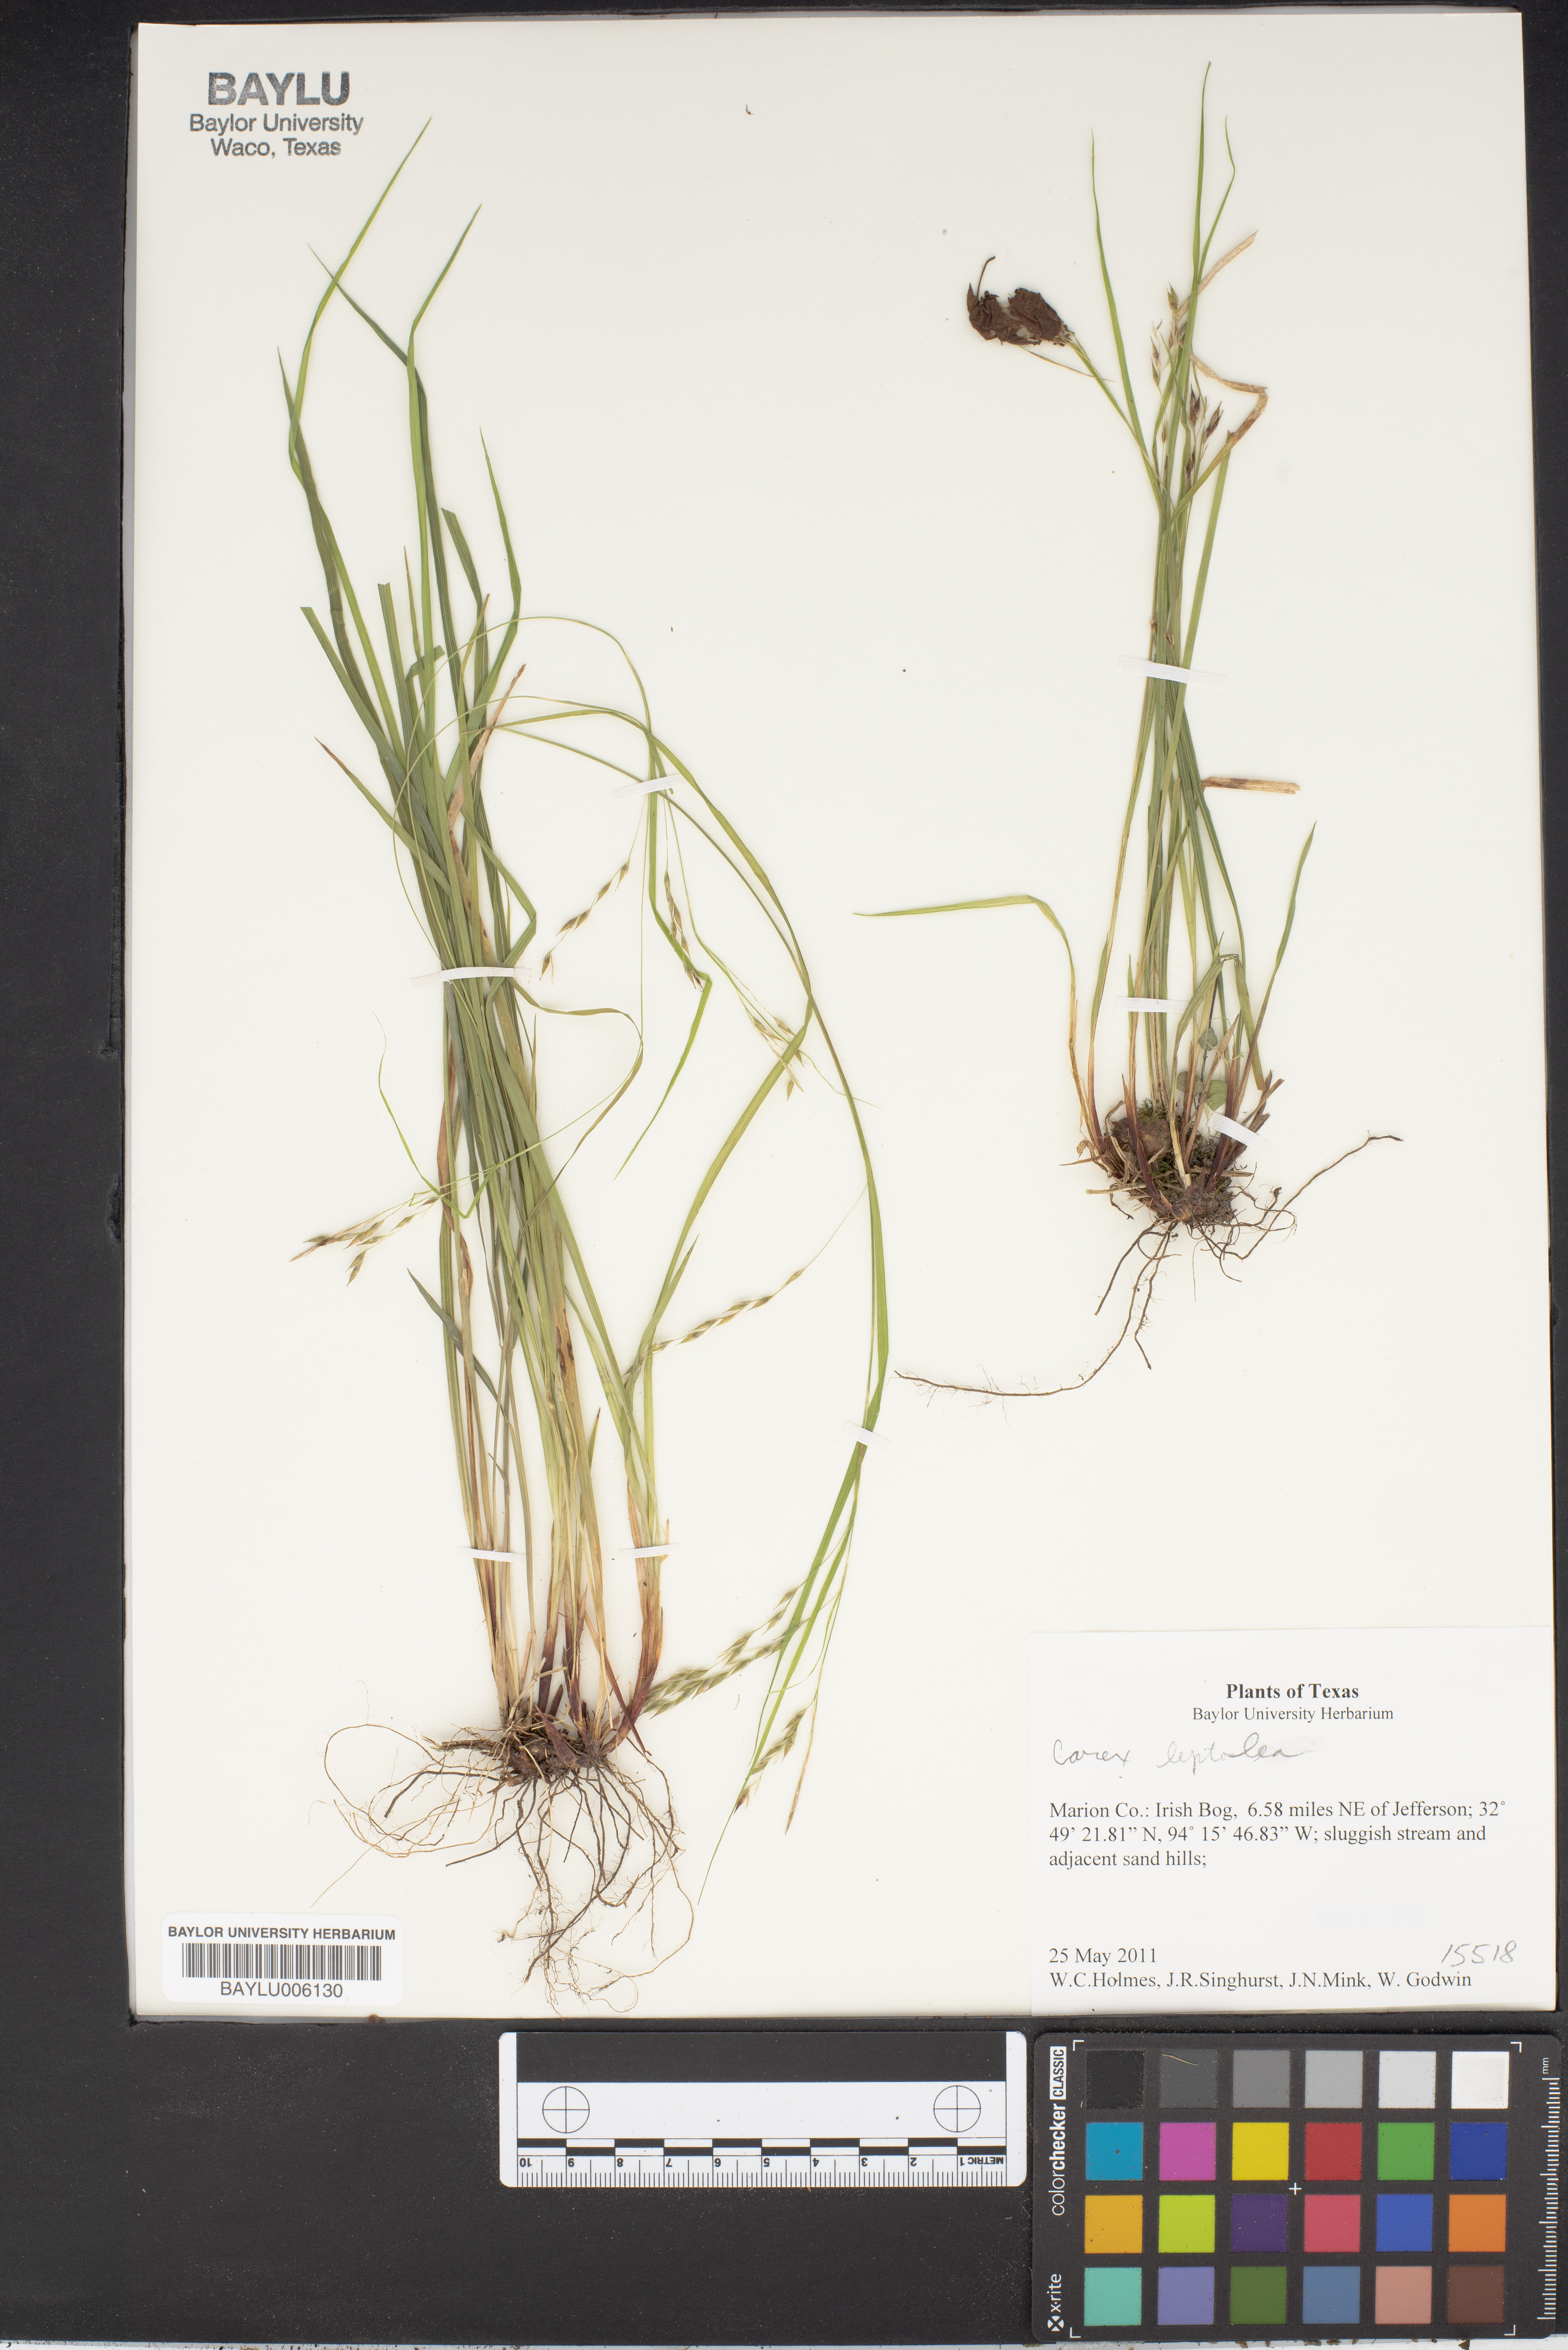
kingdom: Plantae
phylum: Tracheophyta
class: Liliopsida
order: Poales
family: Cyperaceae
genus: Carex
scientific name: Carex leptalea
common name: Bristly-stalked sedge
